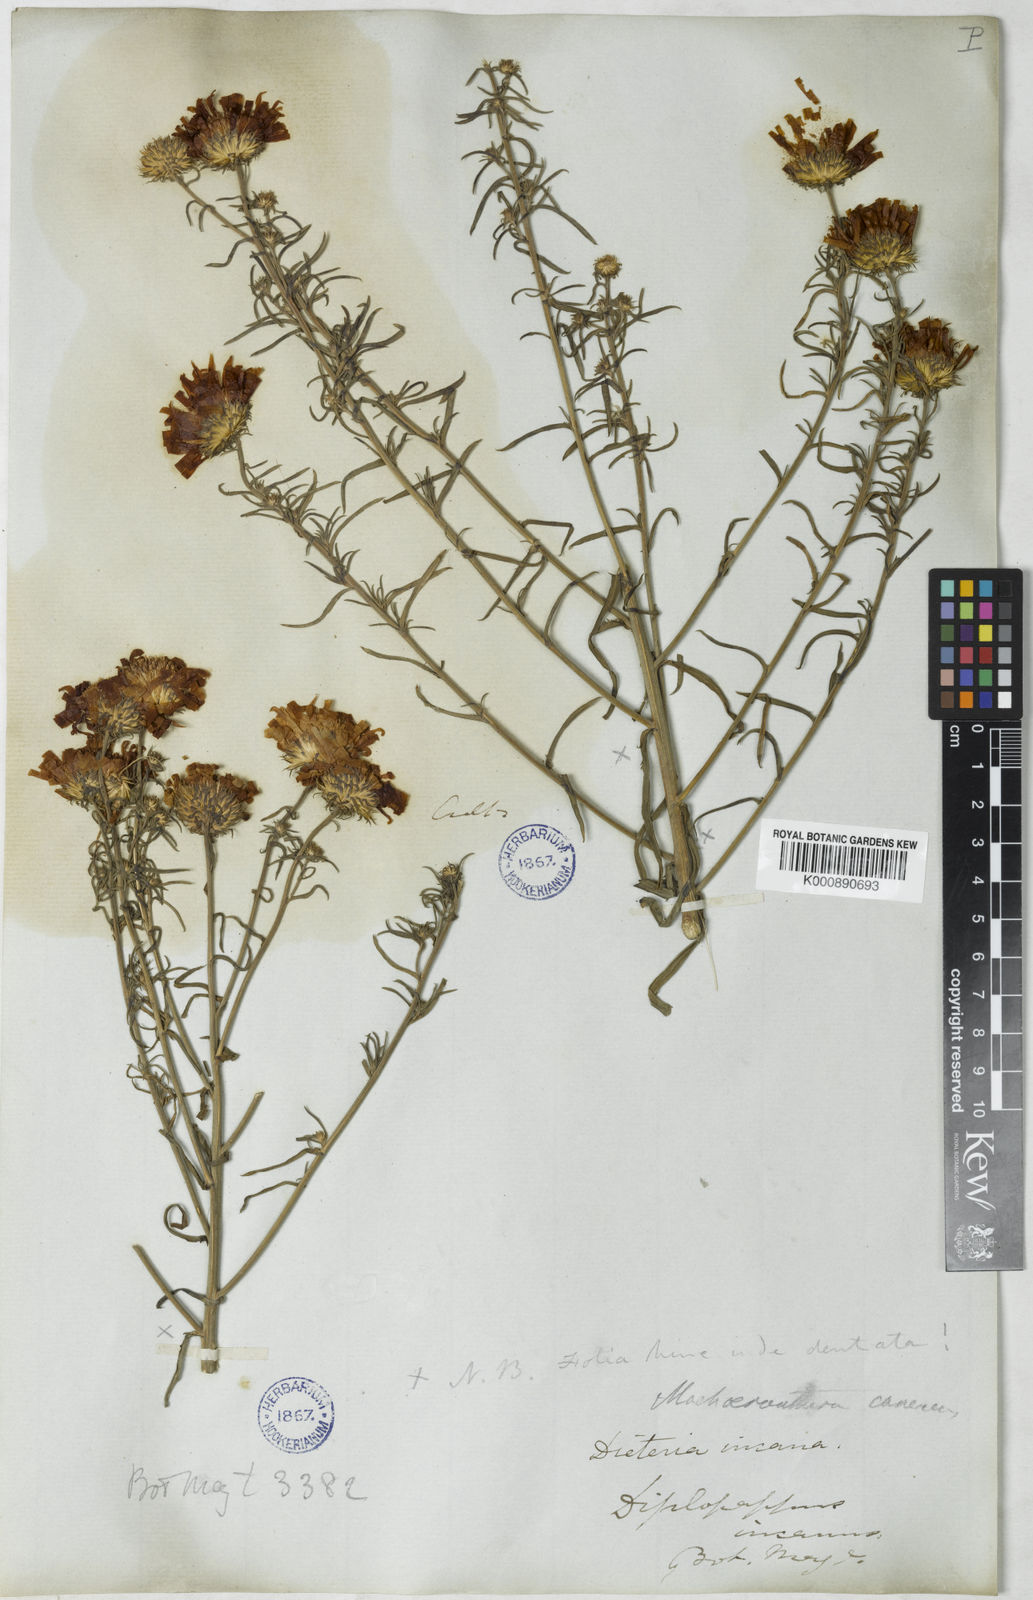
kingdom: Plantae
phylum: Tracheophyta
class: Magnoliopsida
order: Asterales
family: Asteraceae
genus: Dieteria
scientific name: Dieteria canescens
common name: Hoary-aster
